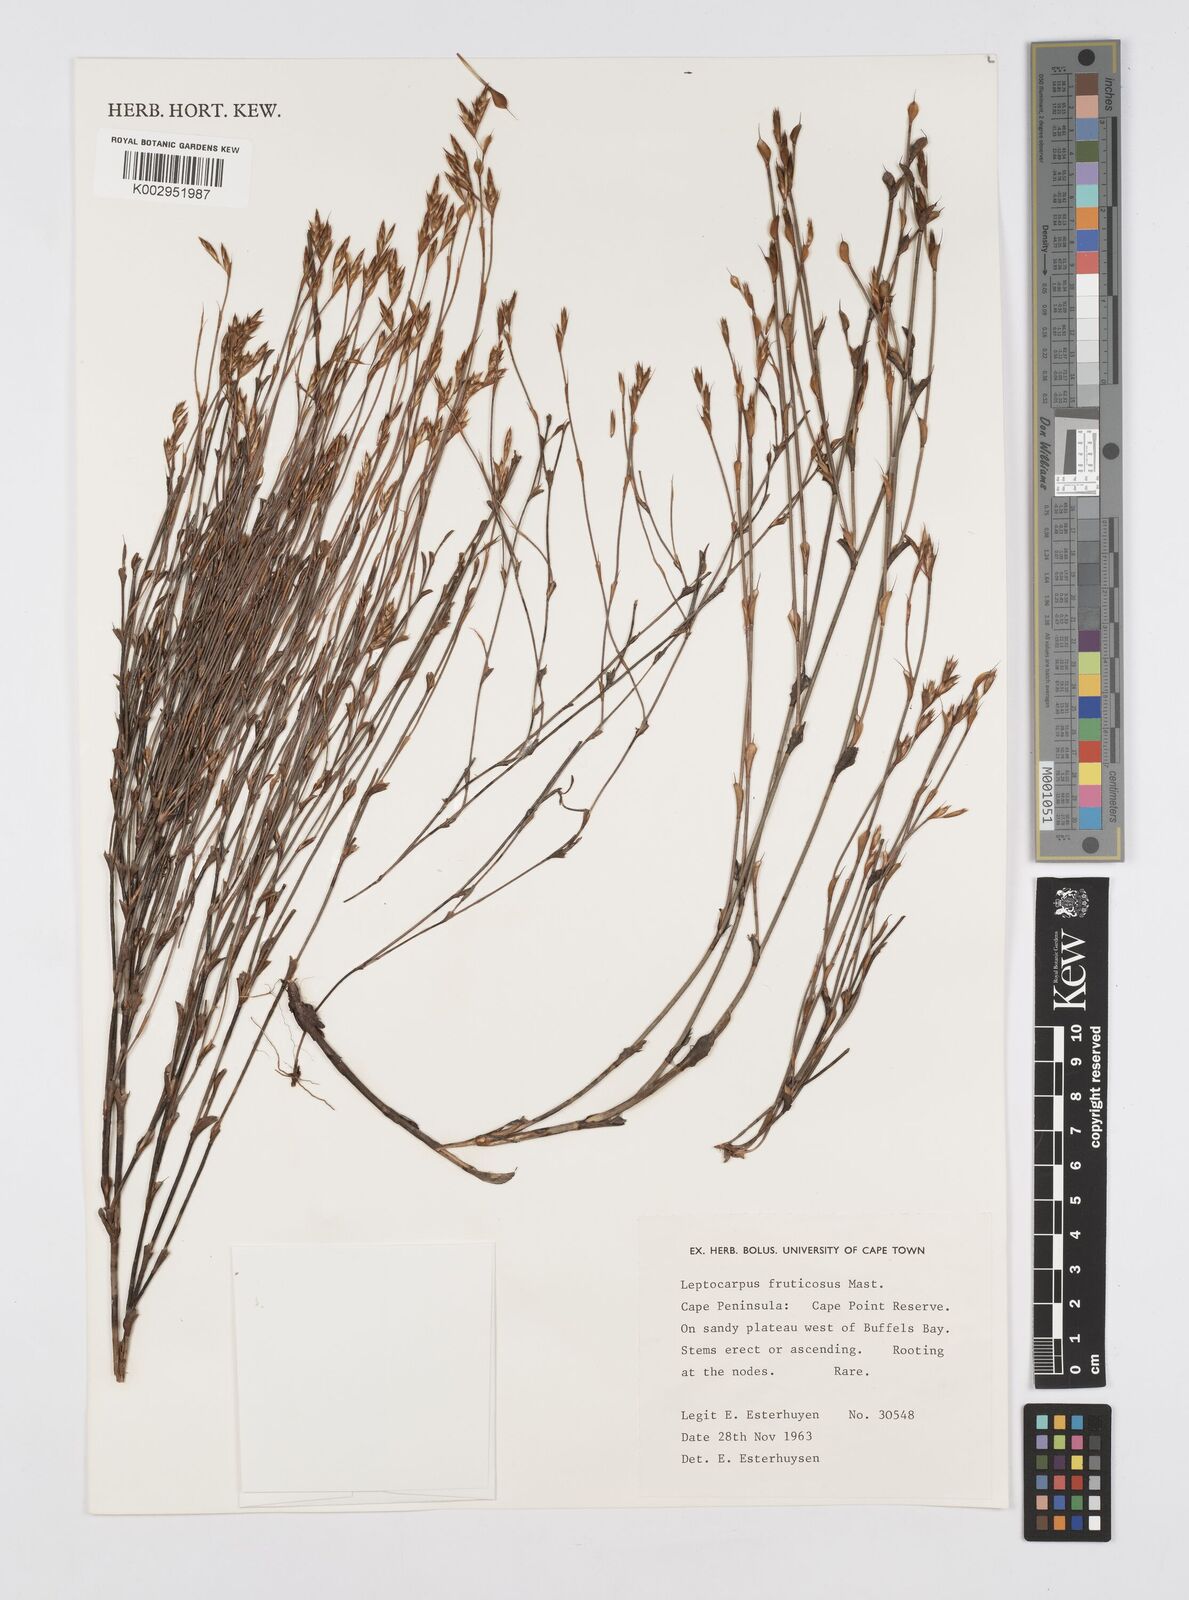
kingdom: Plantae
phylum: Tracheophyta
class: Liliopsida
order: Poales
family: Restionaceae
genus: Rhodocoma
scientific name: Rhodocoma fruticosa
